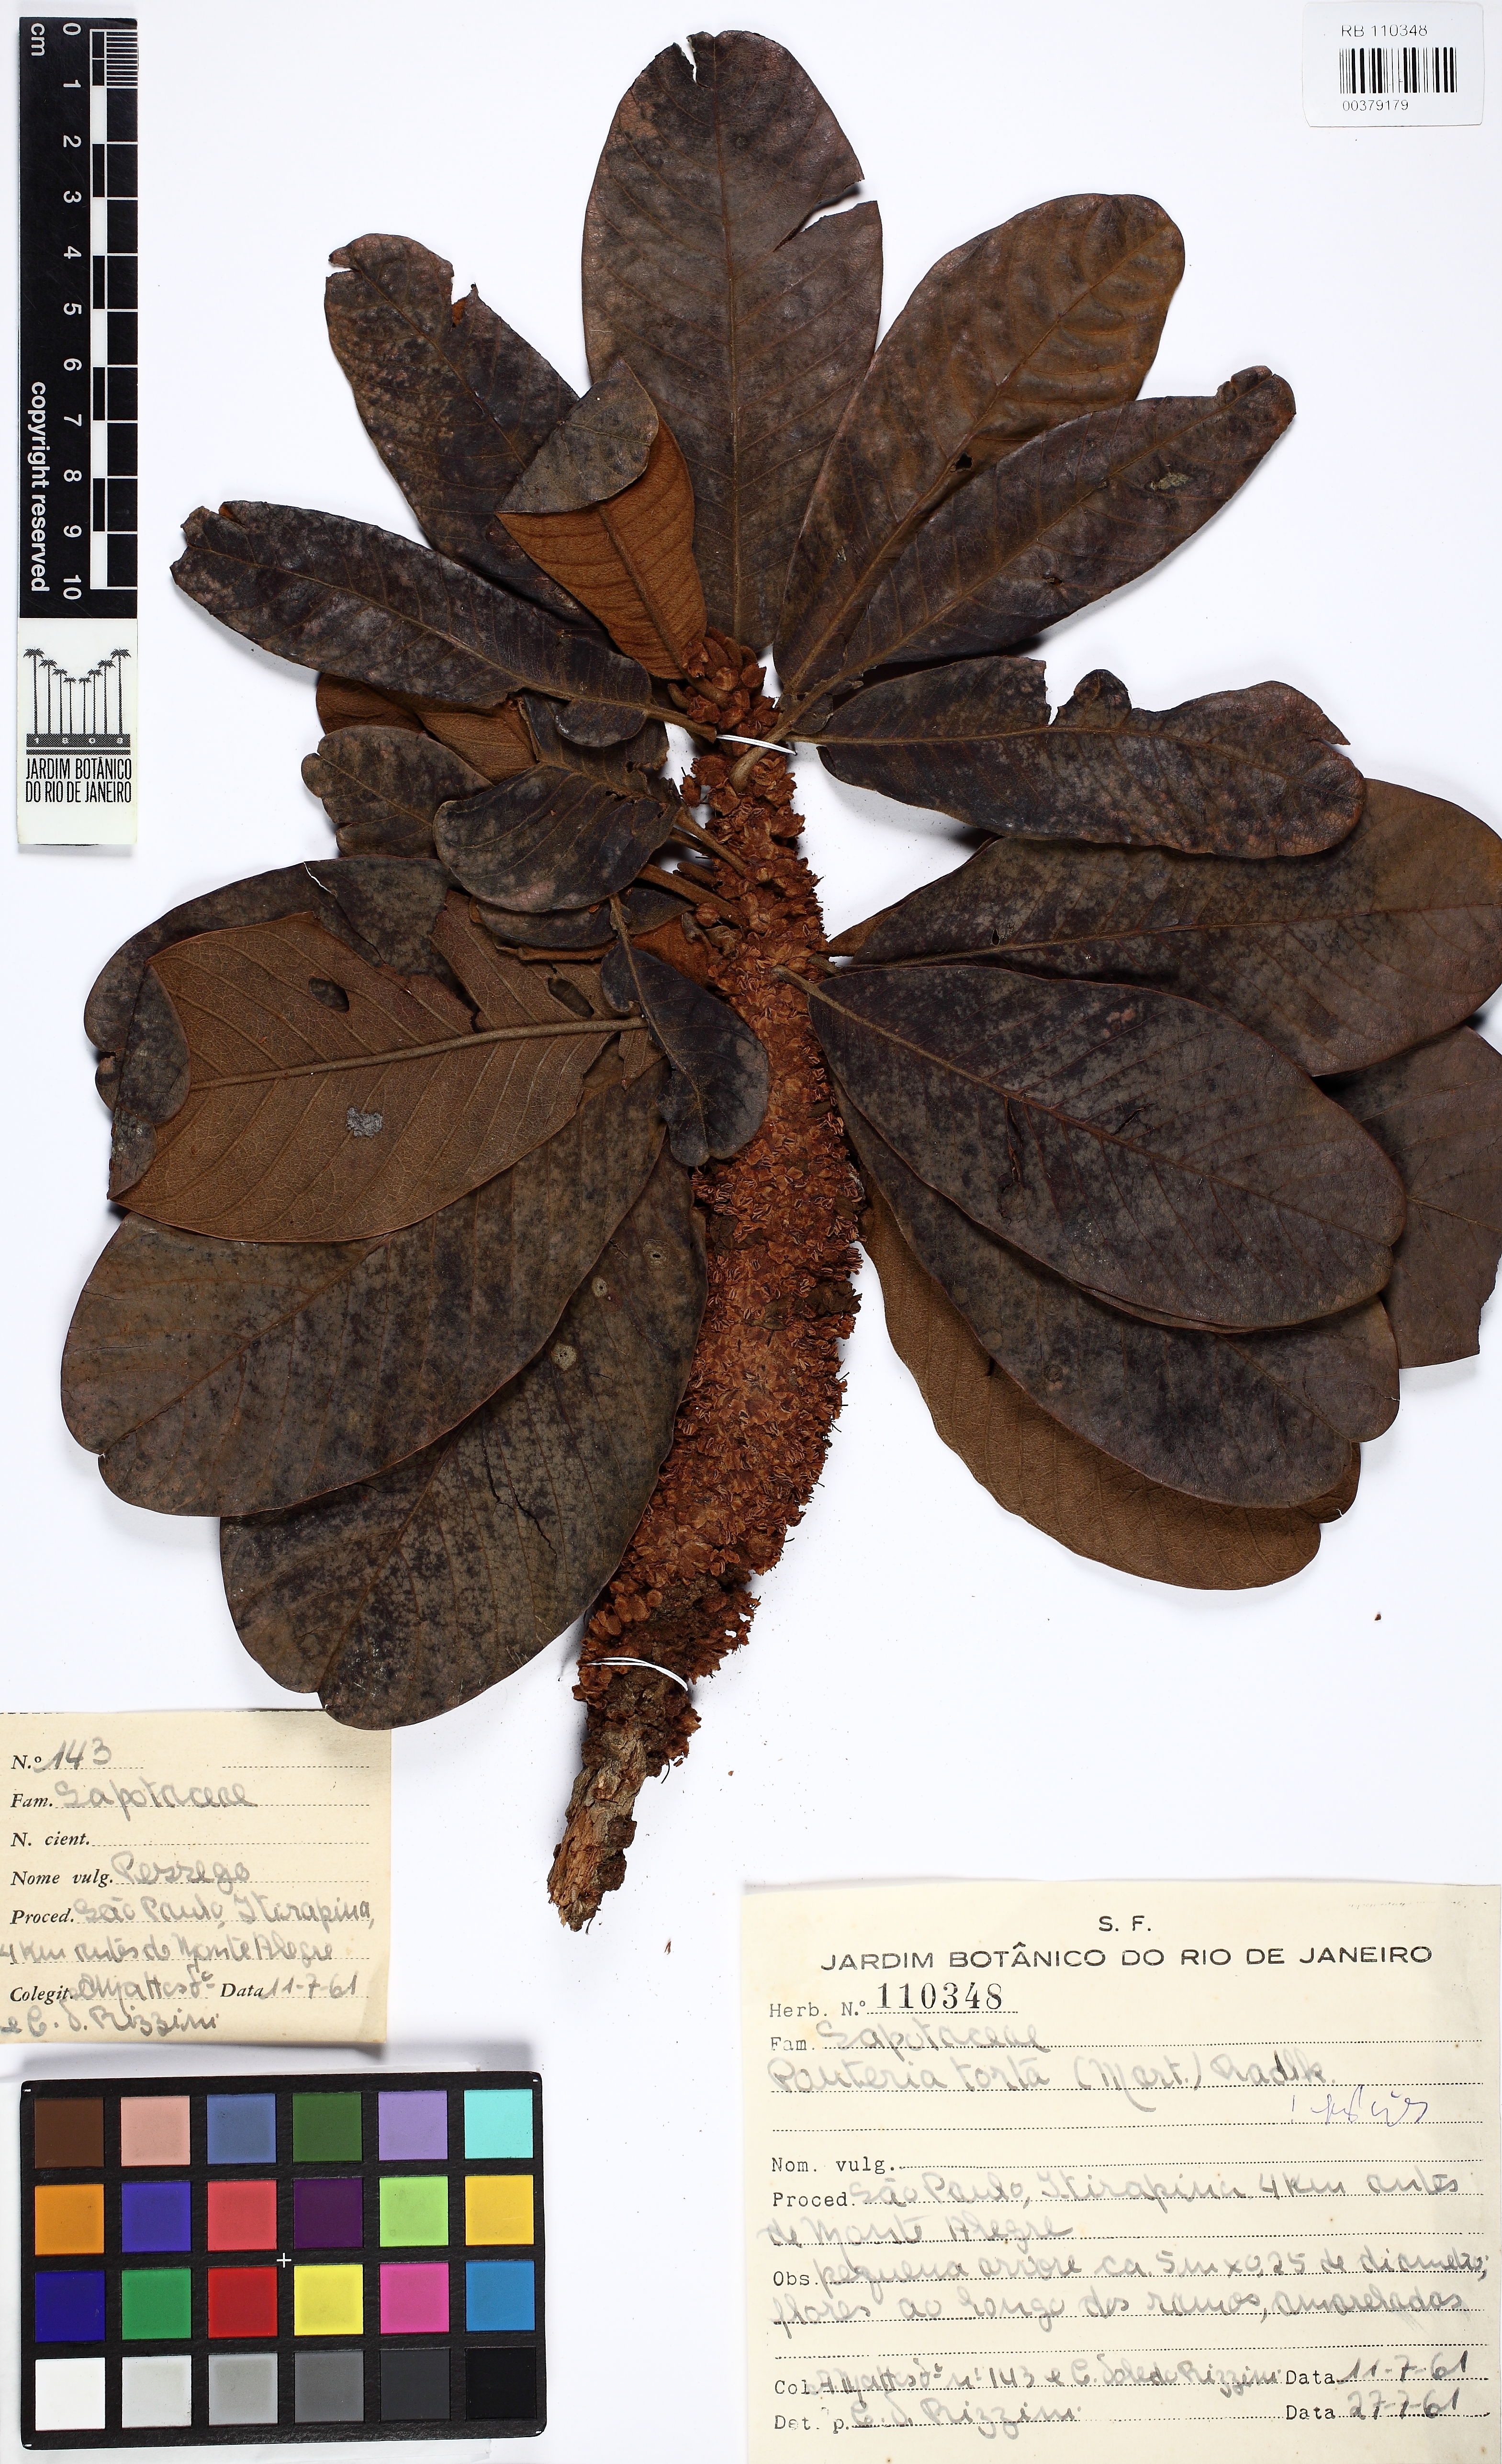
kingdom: Plantae
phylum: Tracheophyta
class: Magnoliopsida
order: Ericales
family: Sapotaceae
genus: Pouteria
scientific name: Pouteria torta
